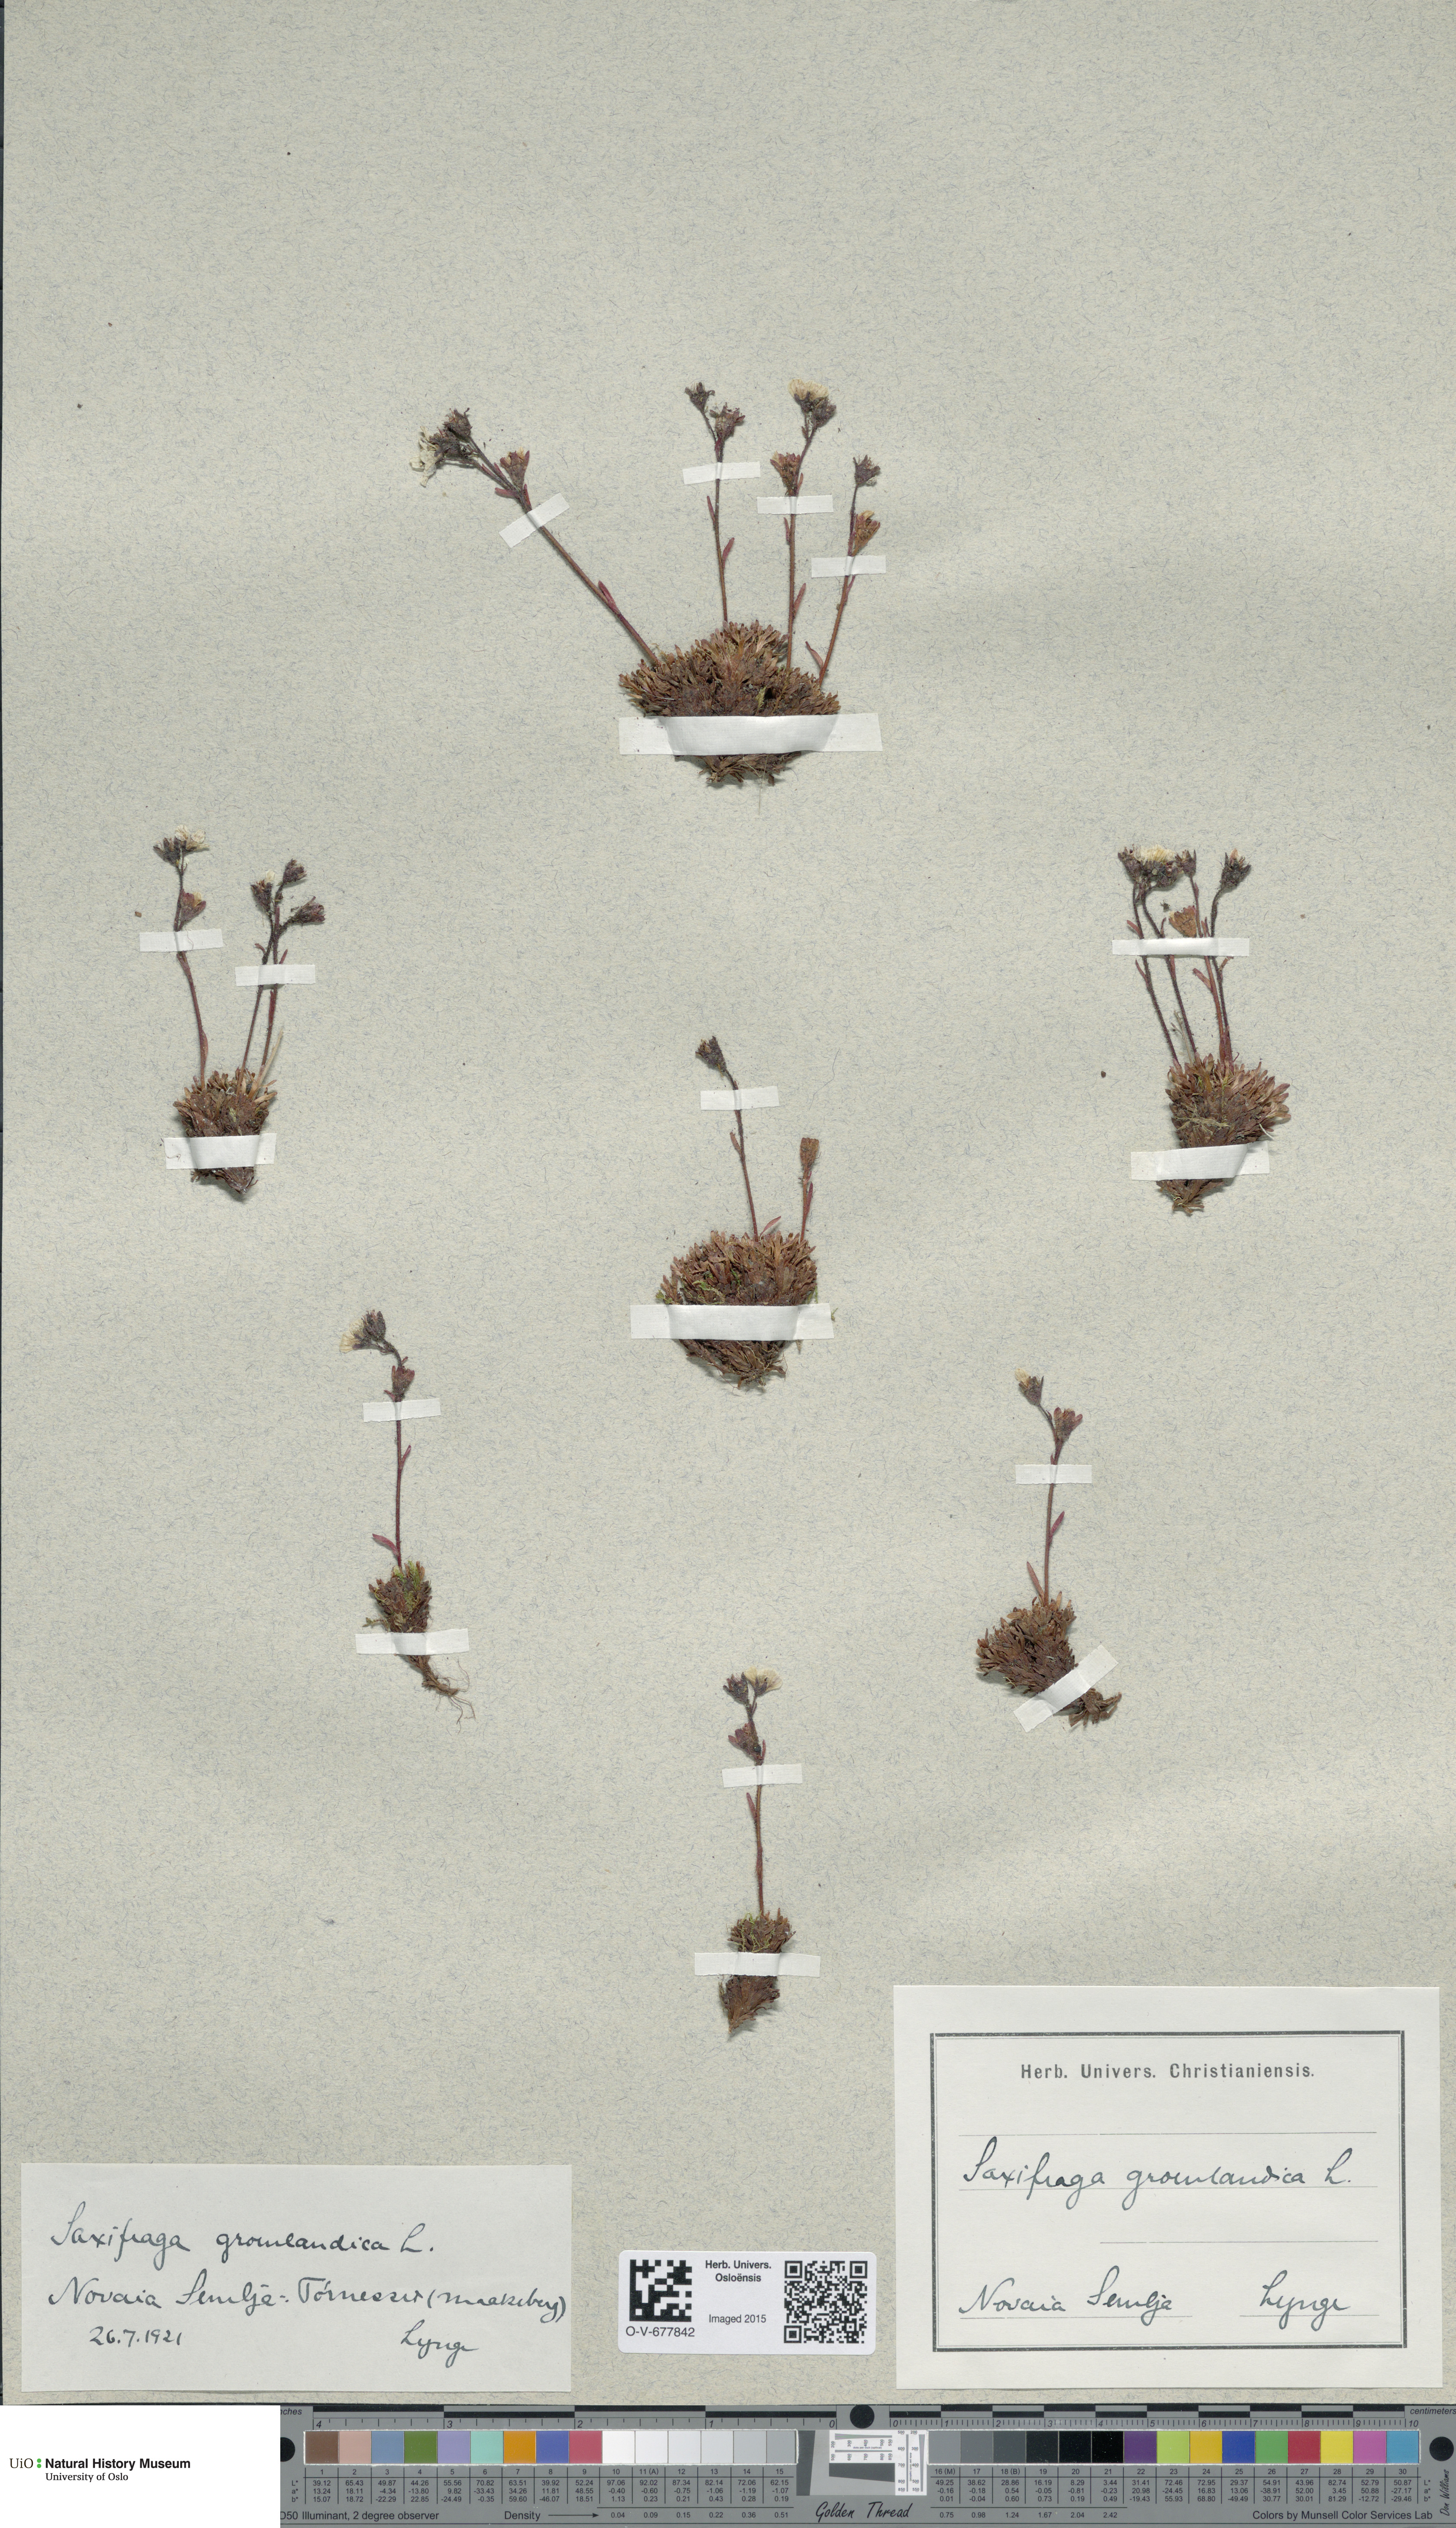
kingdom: Plantae
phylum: Tracheophyta
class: Magnoliopsida
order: Saxifragales
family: Saxifragaceae
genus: Saxifraga
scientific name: Saxifraga cespitosa
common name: Tufted saxifrage
